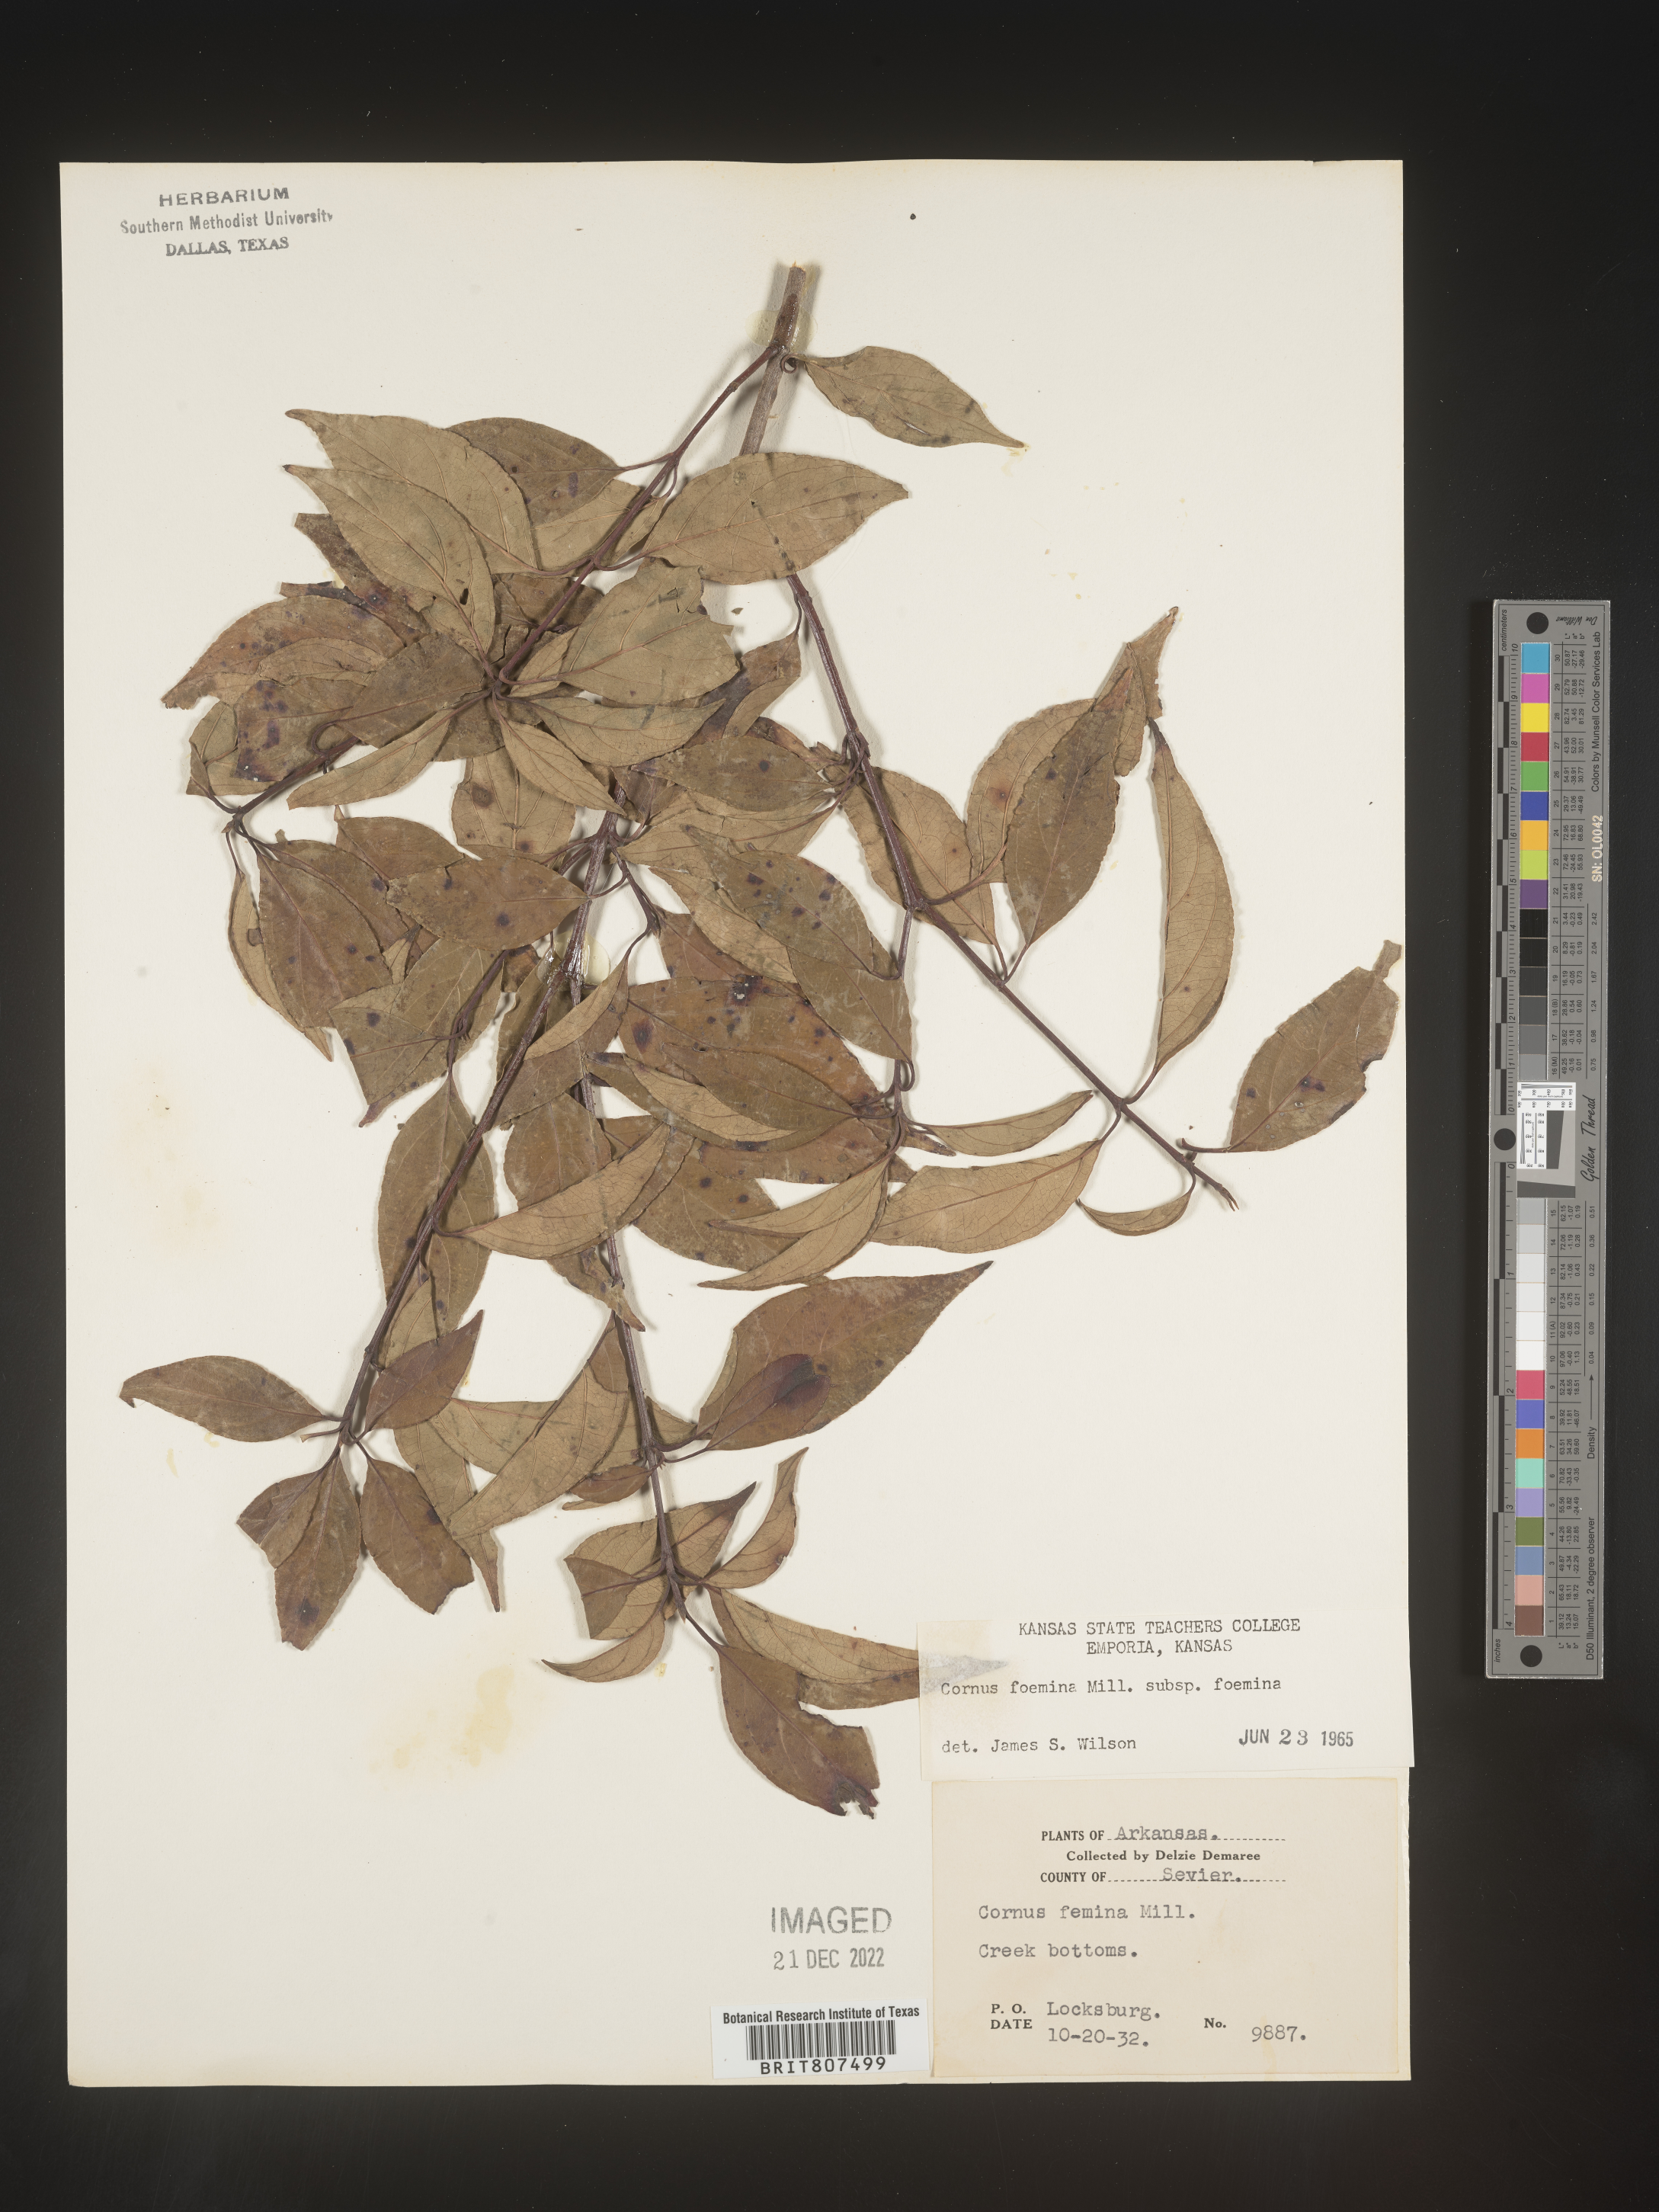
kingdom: Plantae
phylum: Tracheophyta
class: Magnoliopsida
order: Cornales
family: Cornaceae
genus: Cornus
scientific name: Cornus foemina
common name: Swamp dogwood
